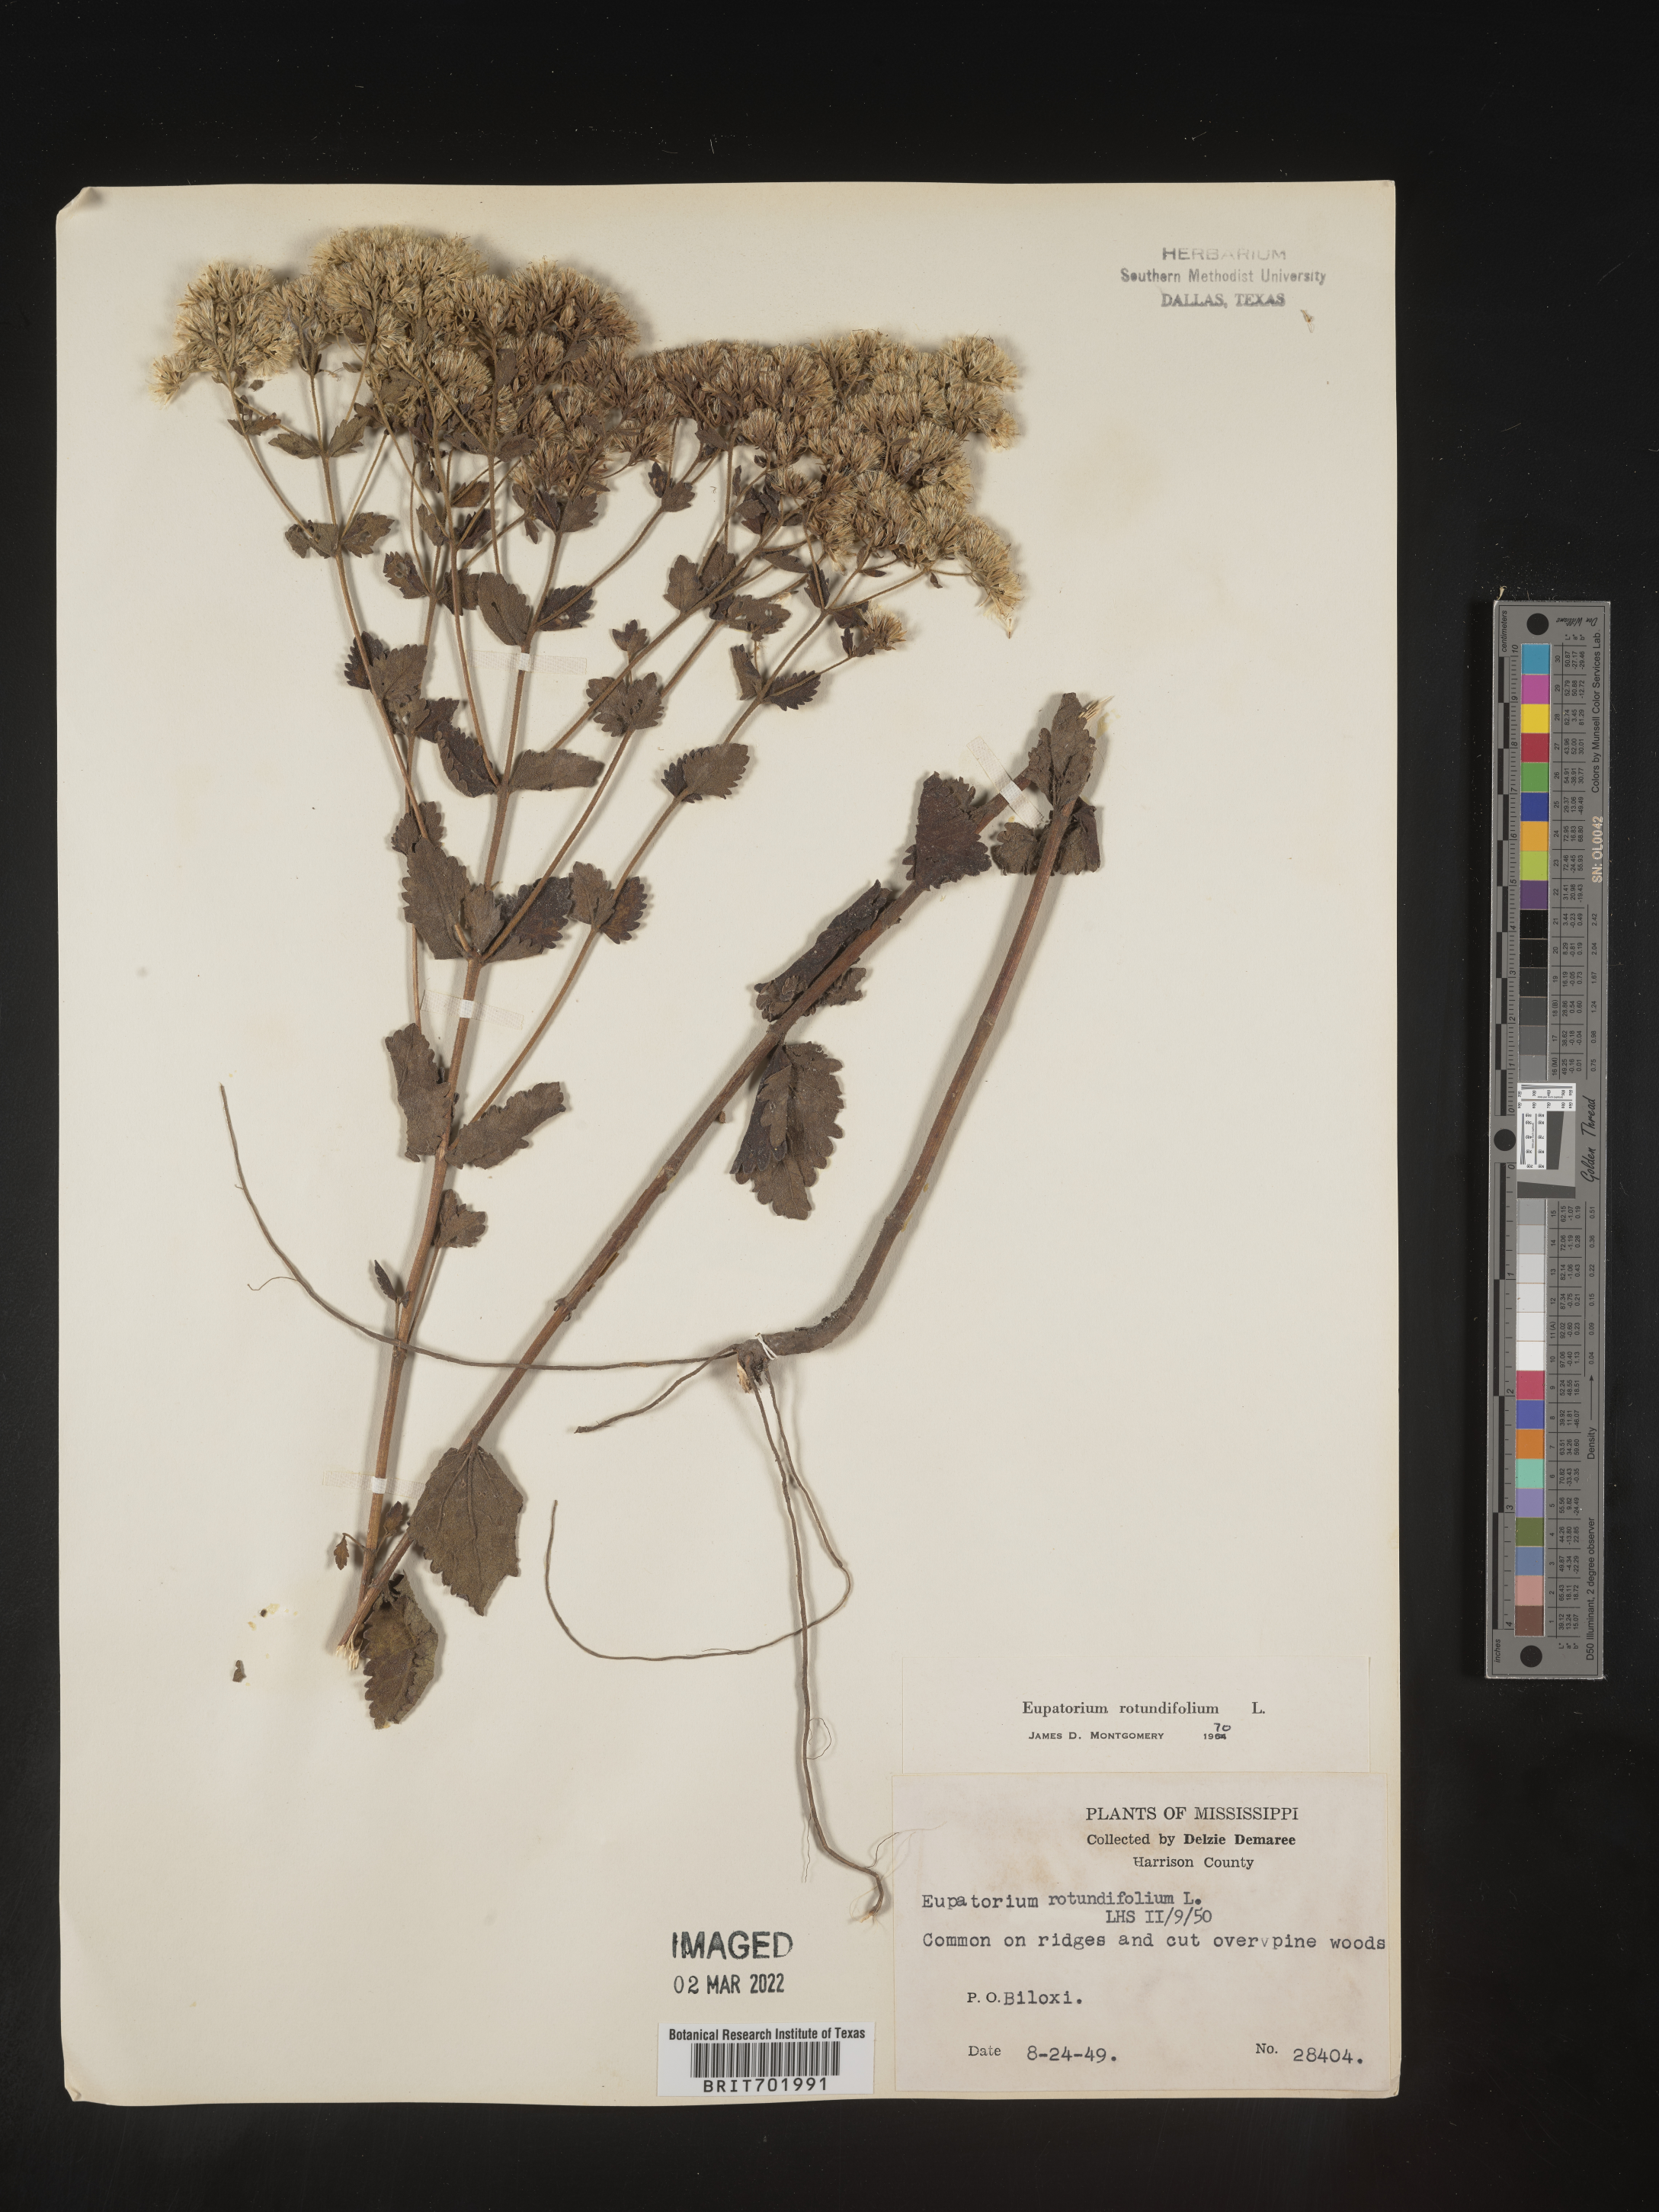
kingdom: Plantae
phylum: Tracheophyta
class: Magnoliopsida
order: Asterales
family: Asteraceae
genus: Eupatorium
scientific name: Eupatorium rotundifolium
